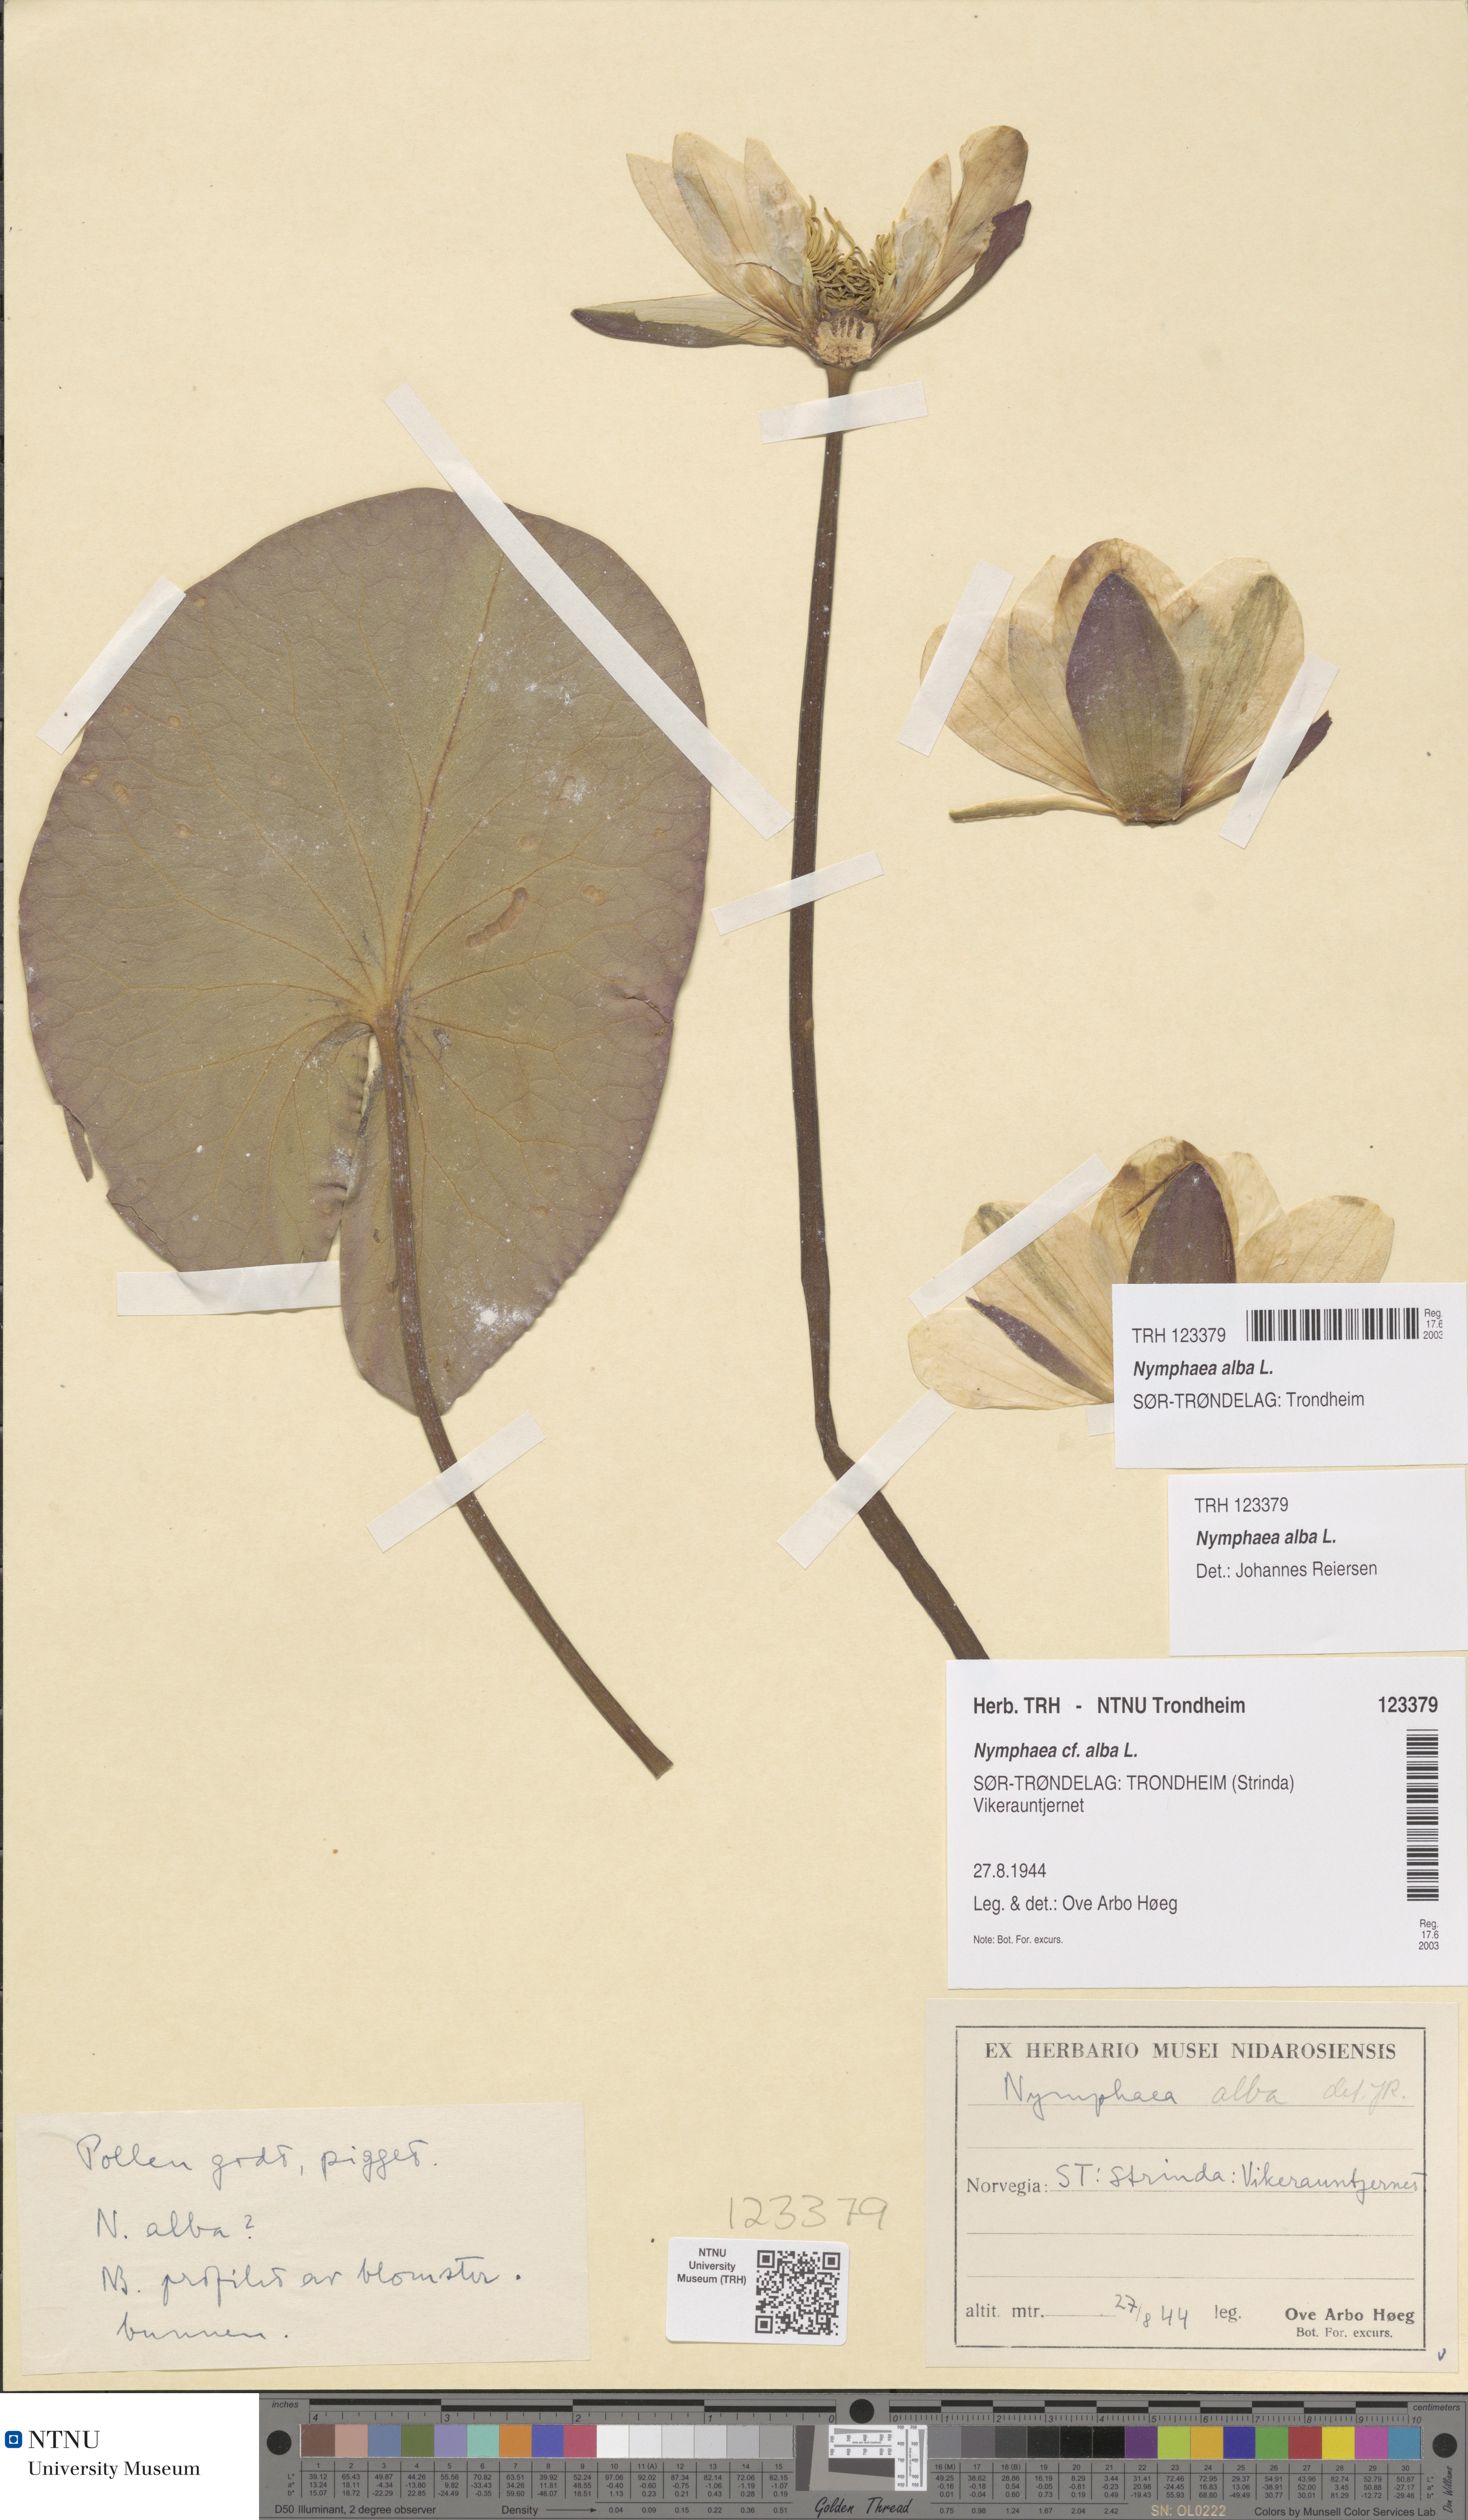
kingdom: Plantae
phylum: Tracheophyta
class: Magnoliopsida
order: Nymphaeales
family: Nymphaeaceae
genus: Nymphaea
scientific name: Nymphaea alba
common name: White water-lily
